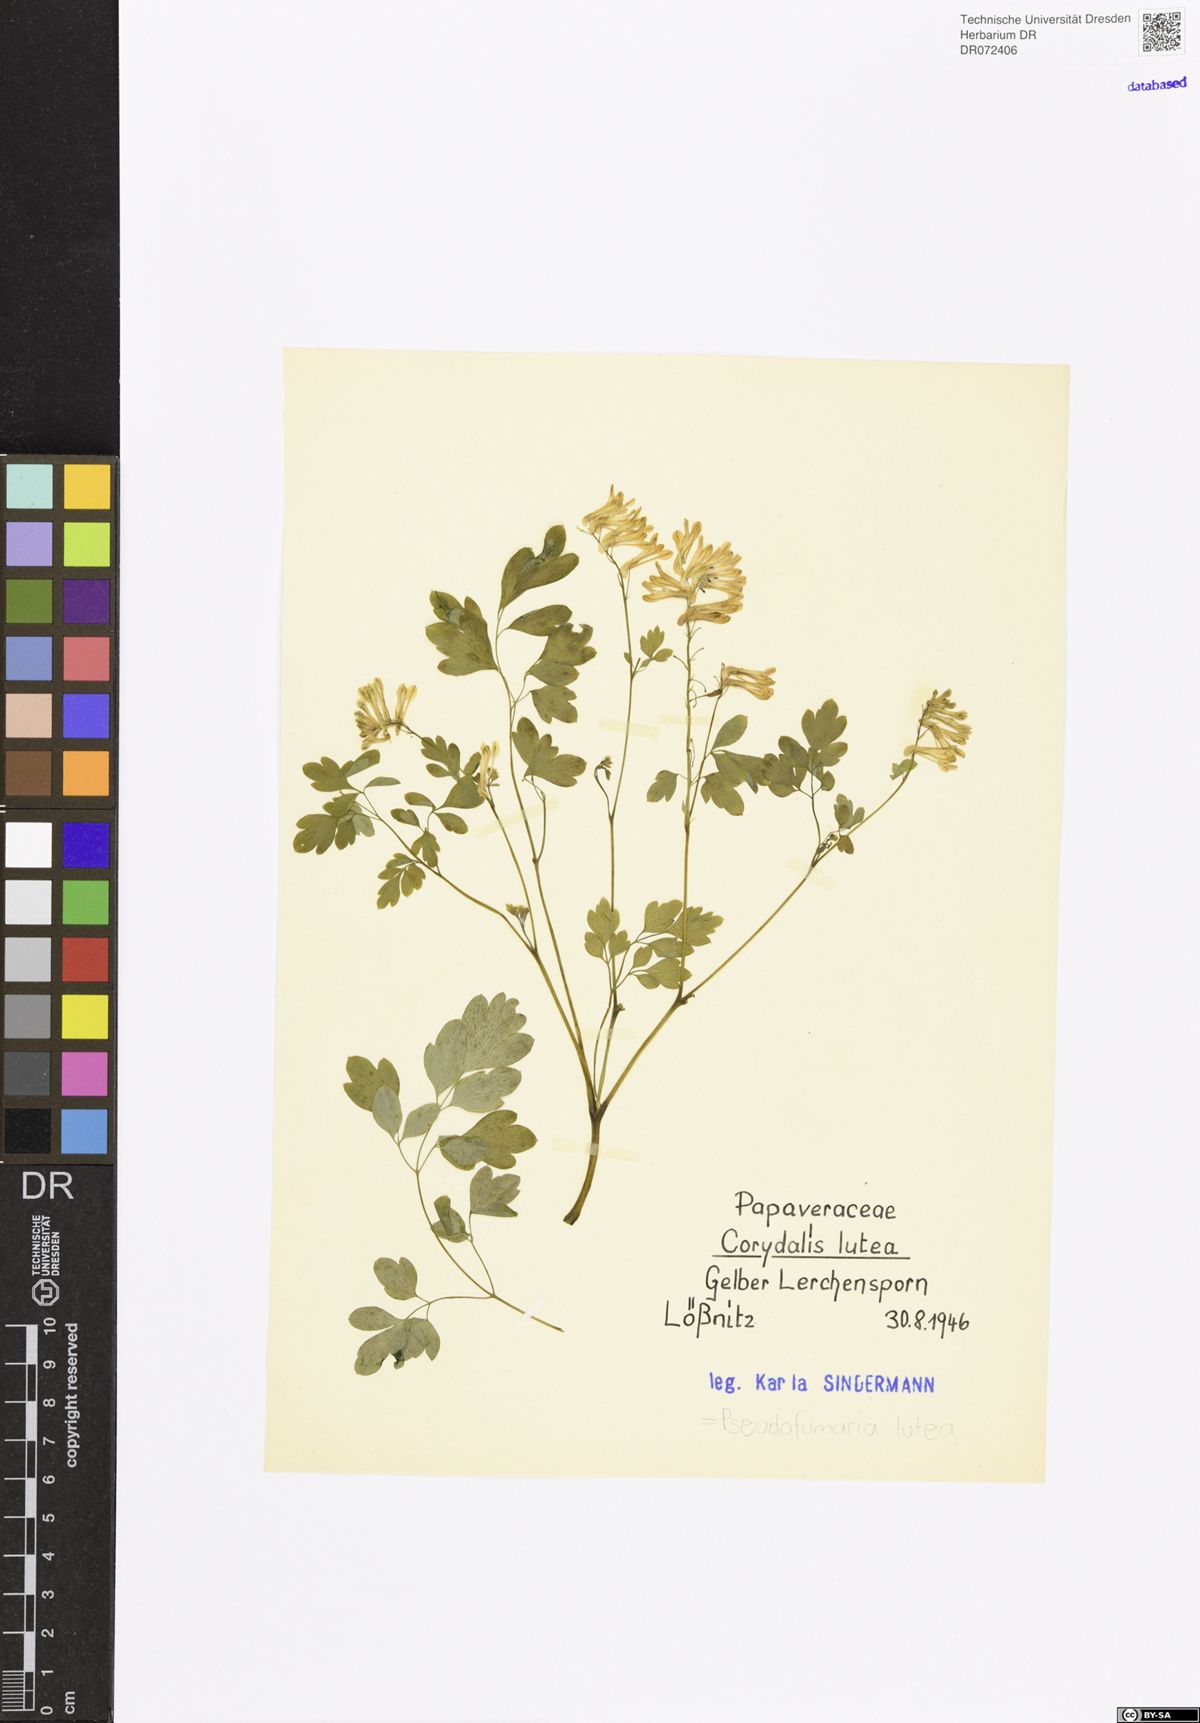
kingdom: Plantae
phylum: Tracheophyta
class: Magnoliopsida
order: Ranunculales
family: Papaveraceae
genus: Pseudofumaria
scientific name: Pseudofumaria lutea
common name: Yellow corydalis
